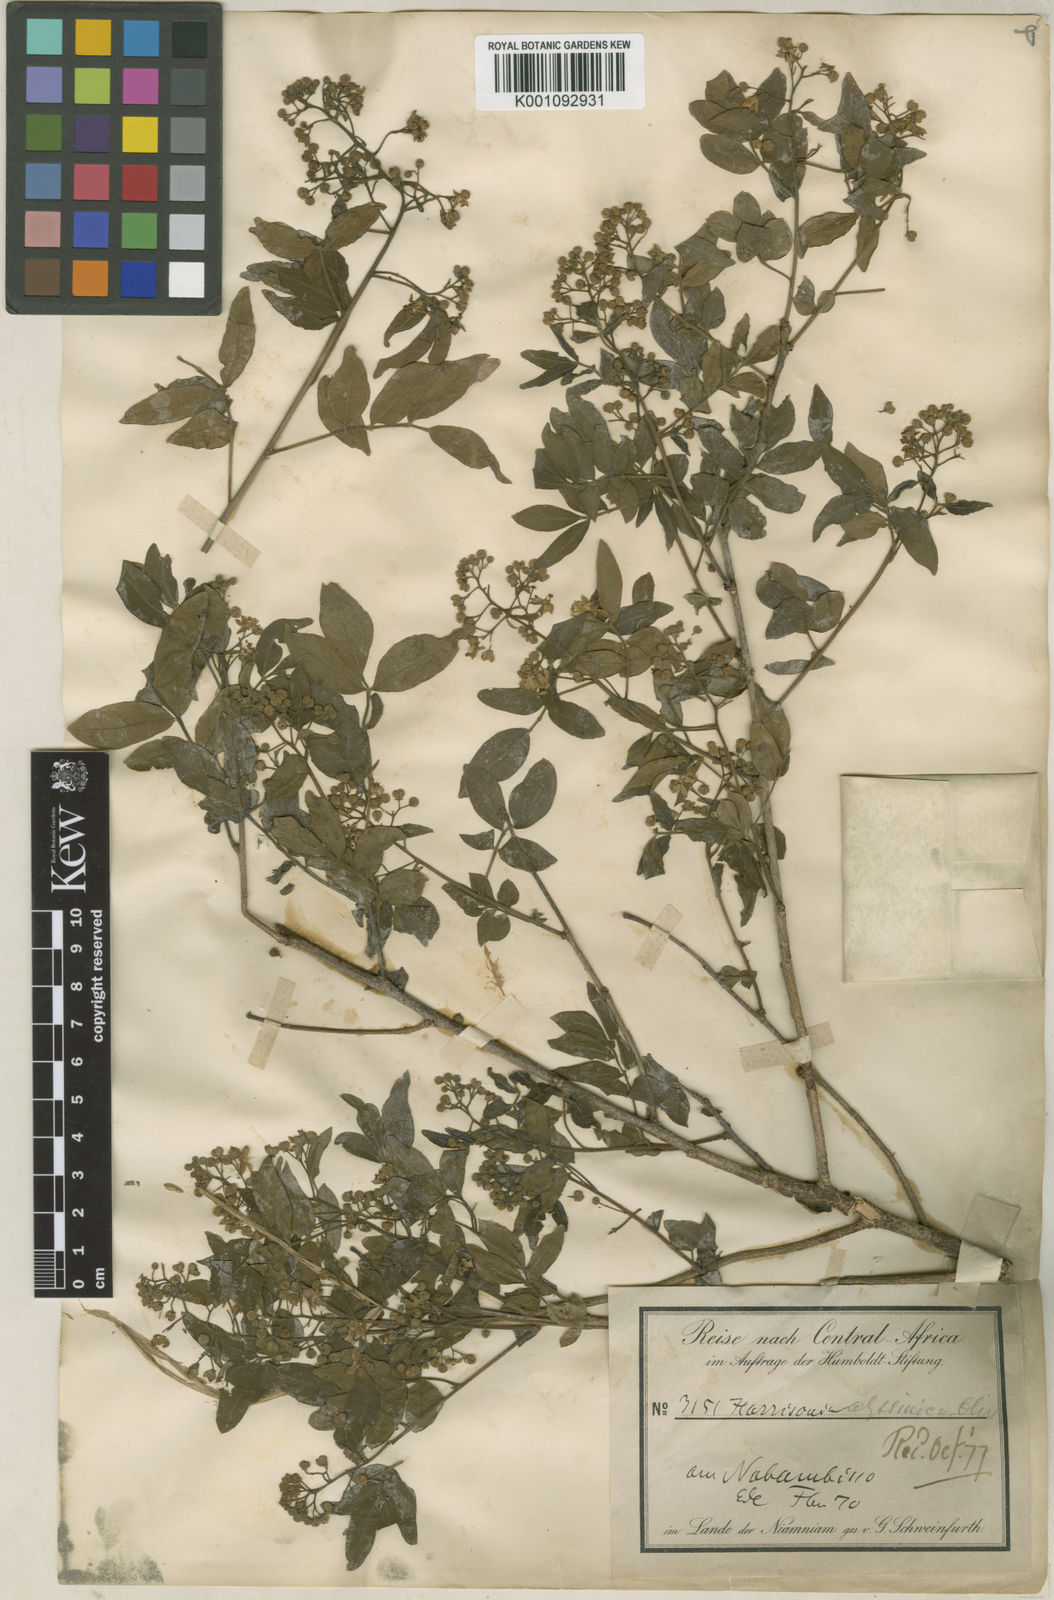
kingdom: Plantae
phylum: Tracheophyta
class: Magnoliopsida
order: Sapindales
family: Rutaceae
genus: Harrisonia
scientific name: Harrisonia abyssinica
